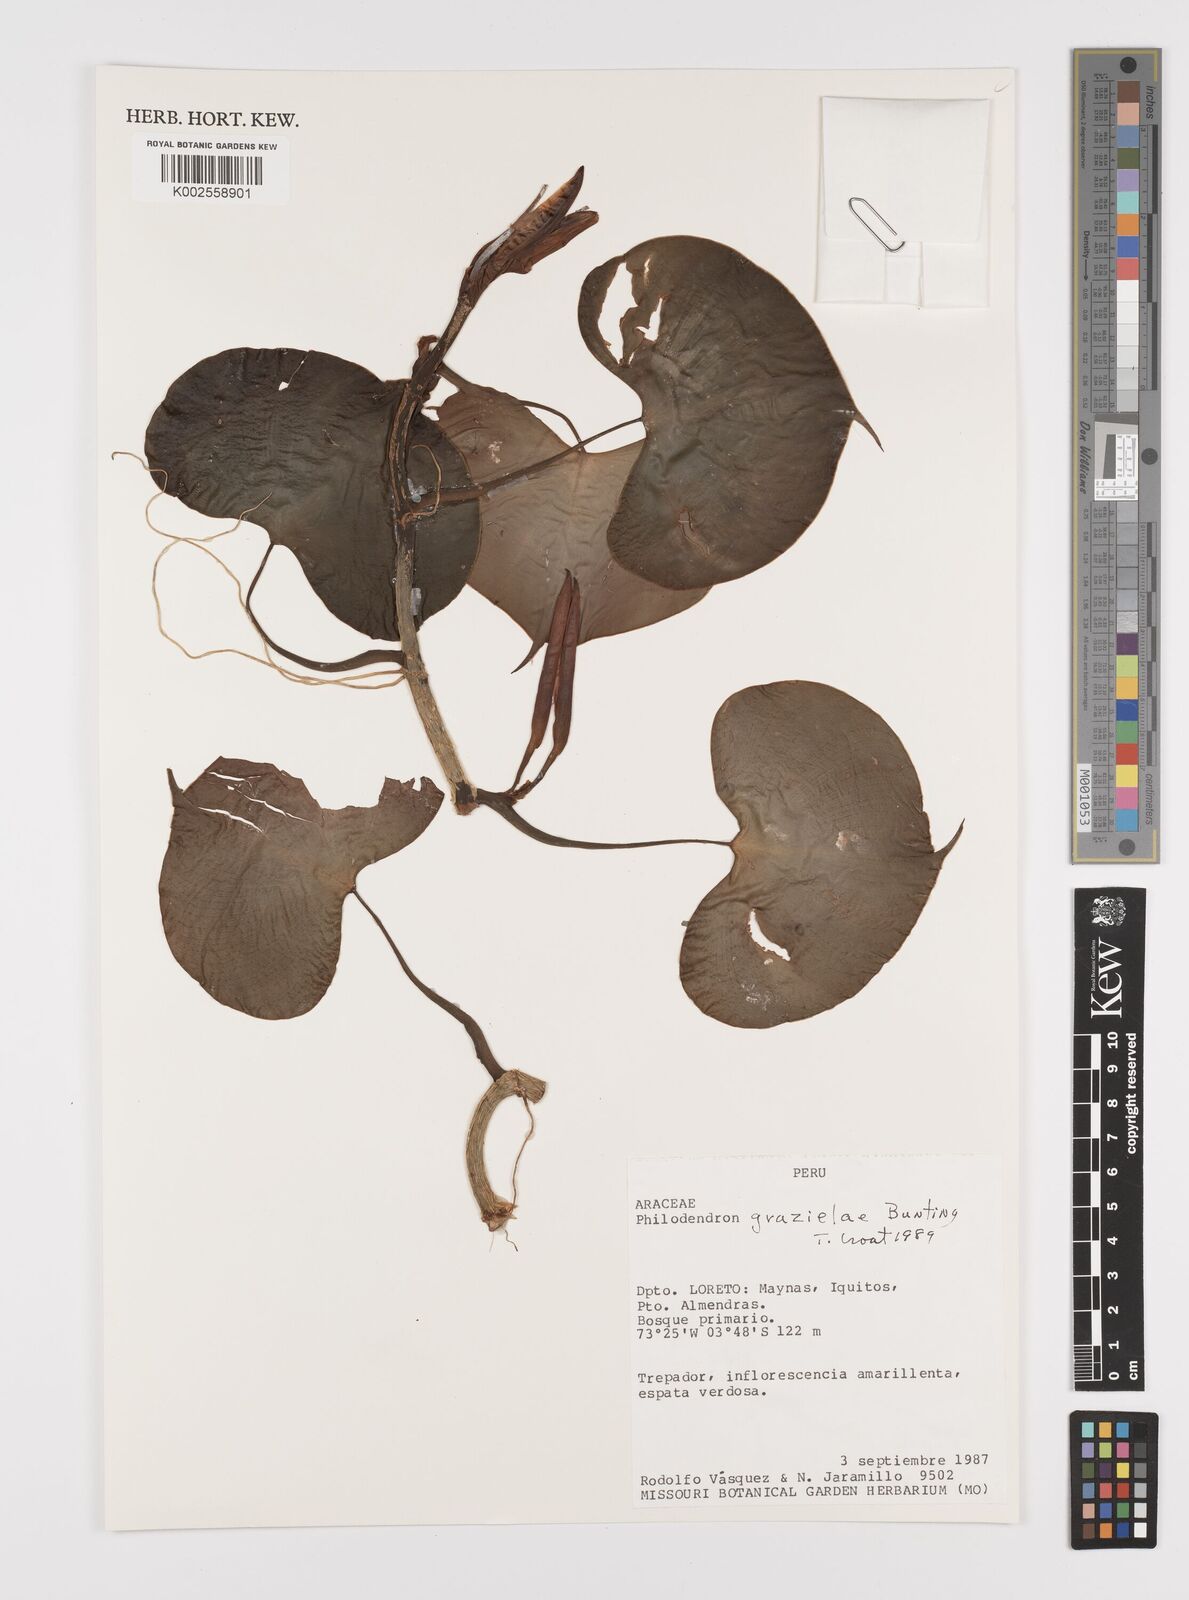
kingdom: Plantae
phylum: Tracheophyta
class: Liliopsida
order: Alismatales
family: Araceae
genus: Philodendron
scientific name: Philodendron grazielae
